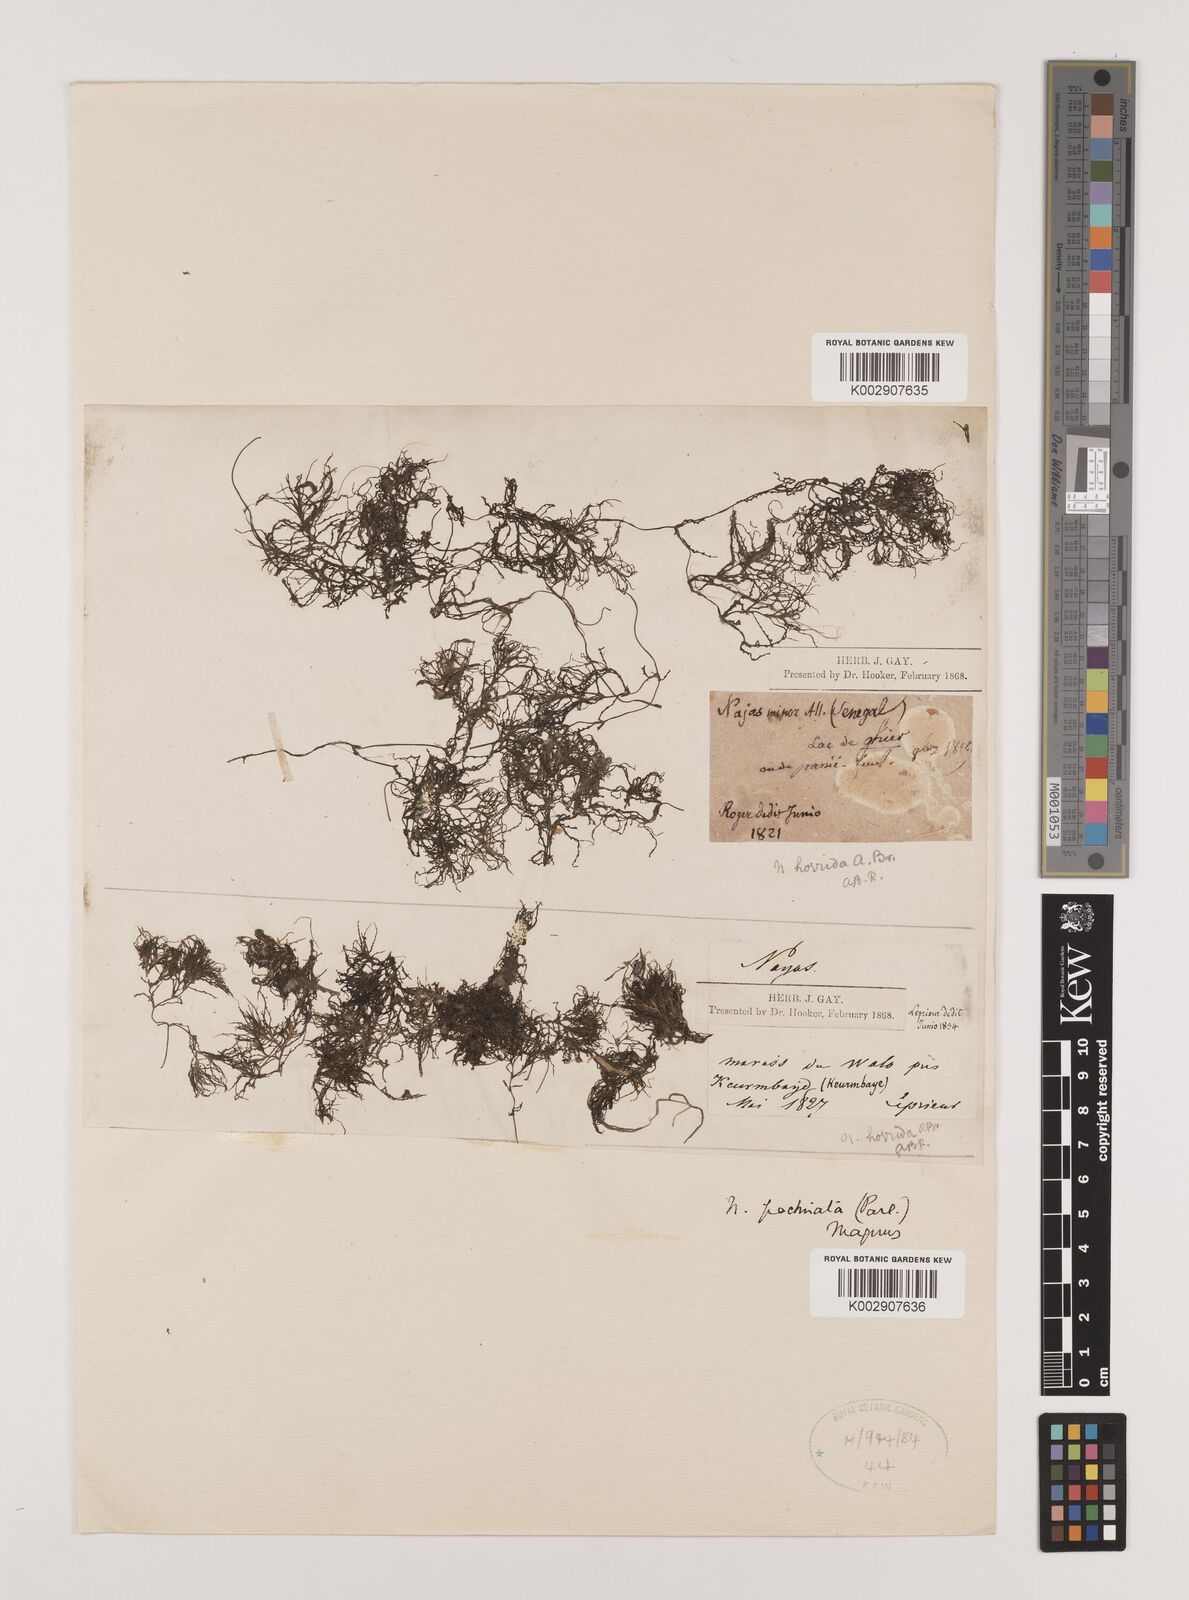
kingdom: Plantae
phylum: Tracheophyta
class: Liliopsida
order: Alismatales
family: Hydrocharitaceae
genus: Najas
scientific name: Najas baldwinii
